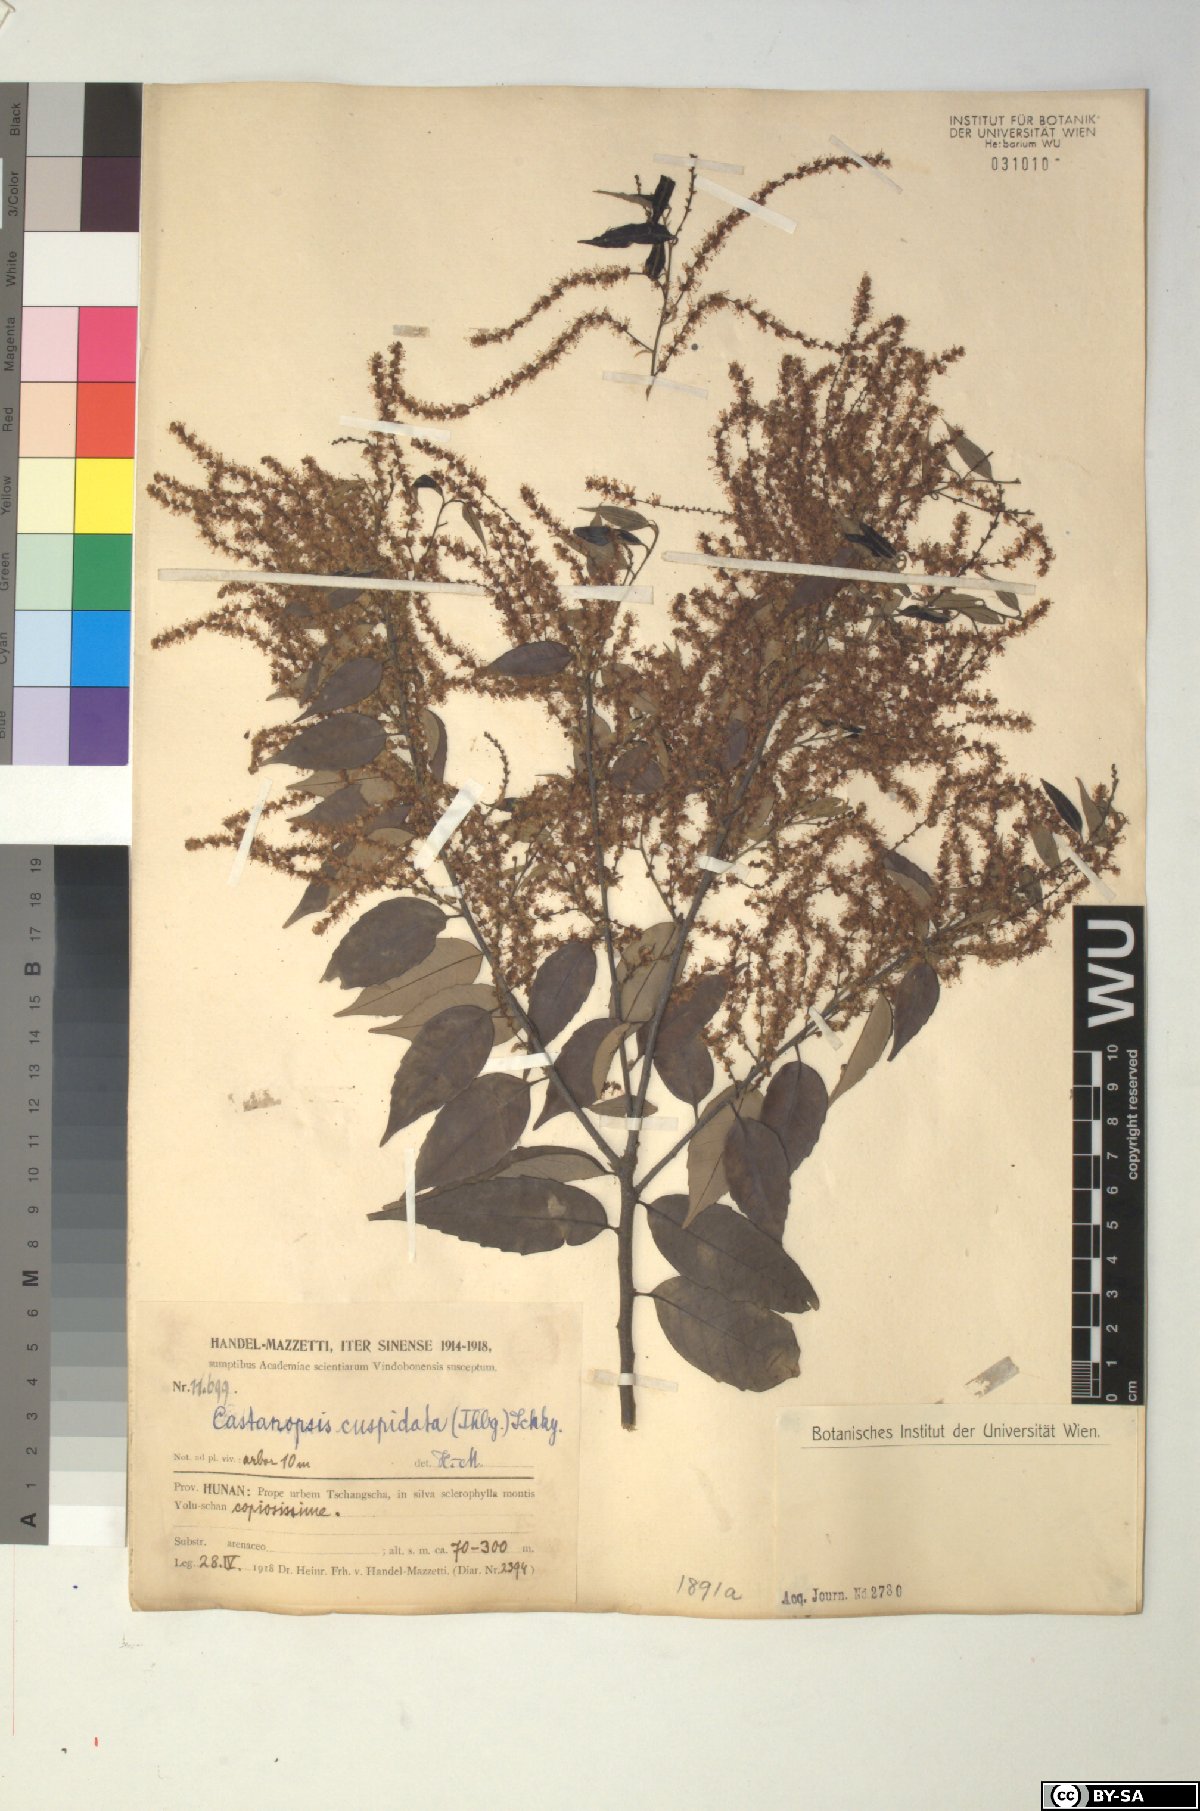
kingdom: Plantae
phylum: Tracheophyta
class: Magnoliopsida
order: Fagales
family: Fagaceae
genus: Castanopsis
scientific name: Castanopsis cuspidata
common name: Japanese chinquapin
